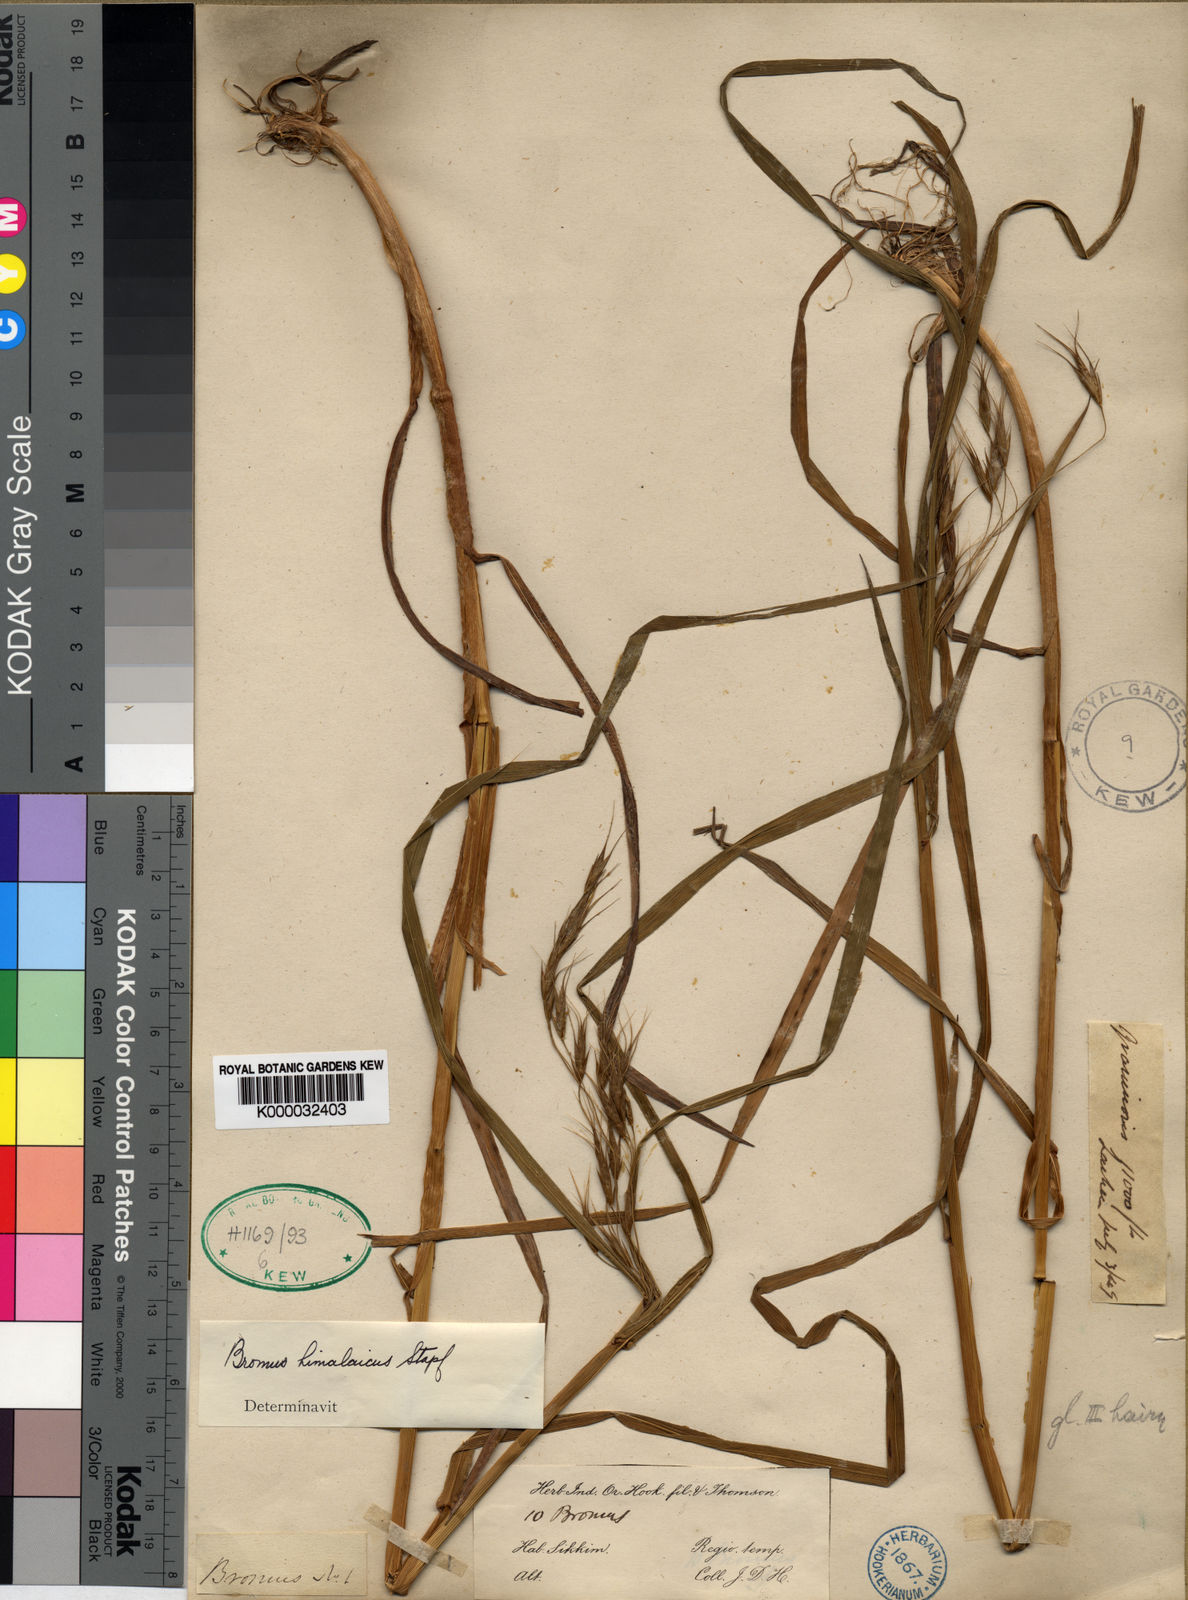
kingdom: Plantae
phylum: Tracheophyta
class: Liliopsida
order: Poales
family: Poaceae
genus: Bromus
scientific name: Bromus himalaicus
